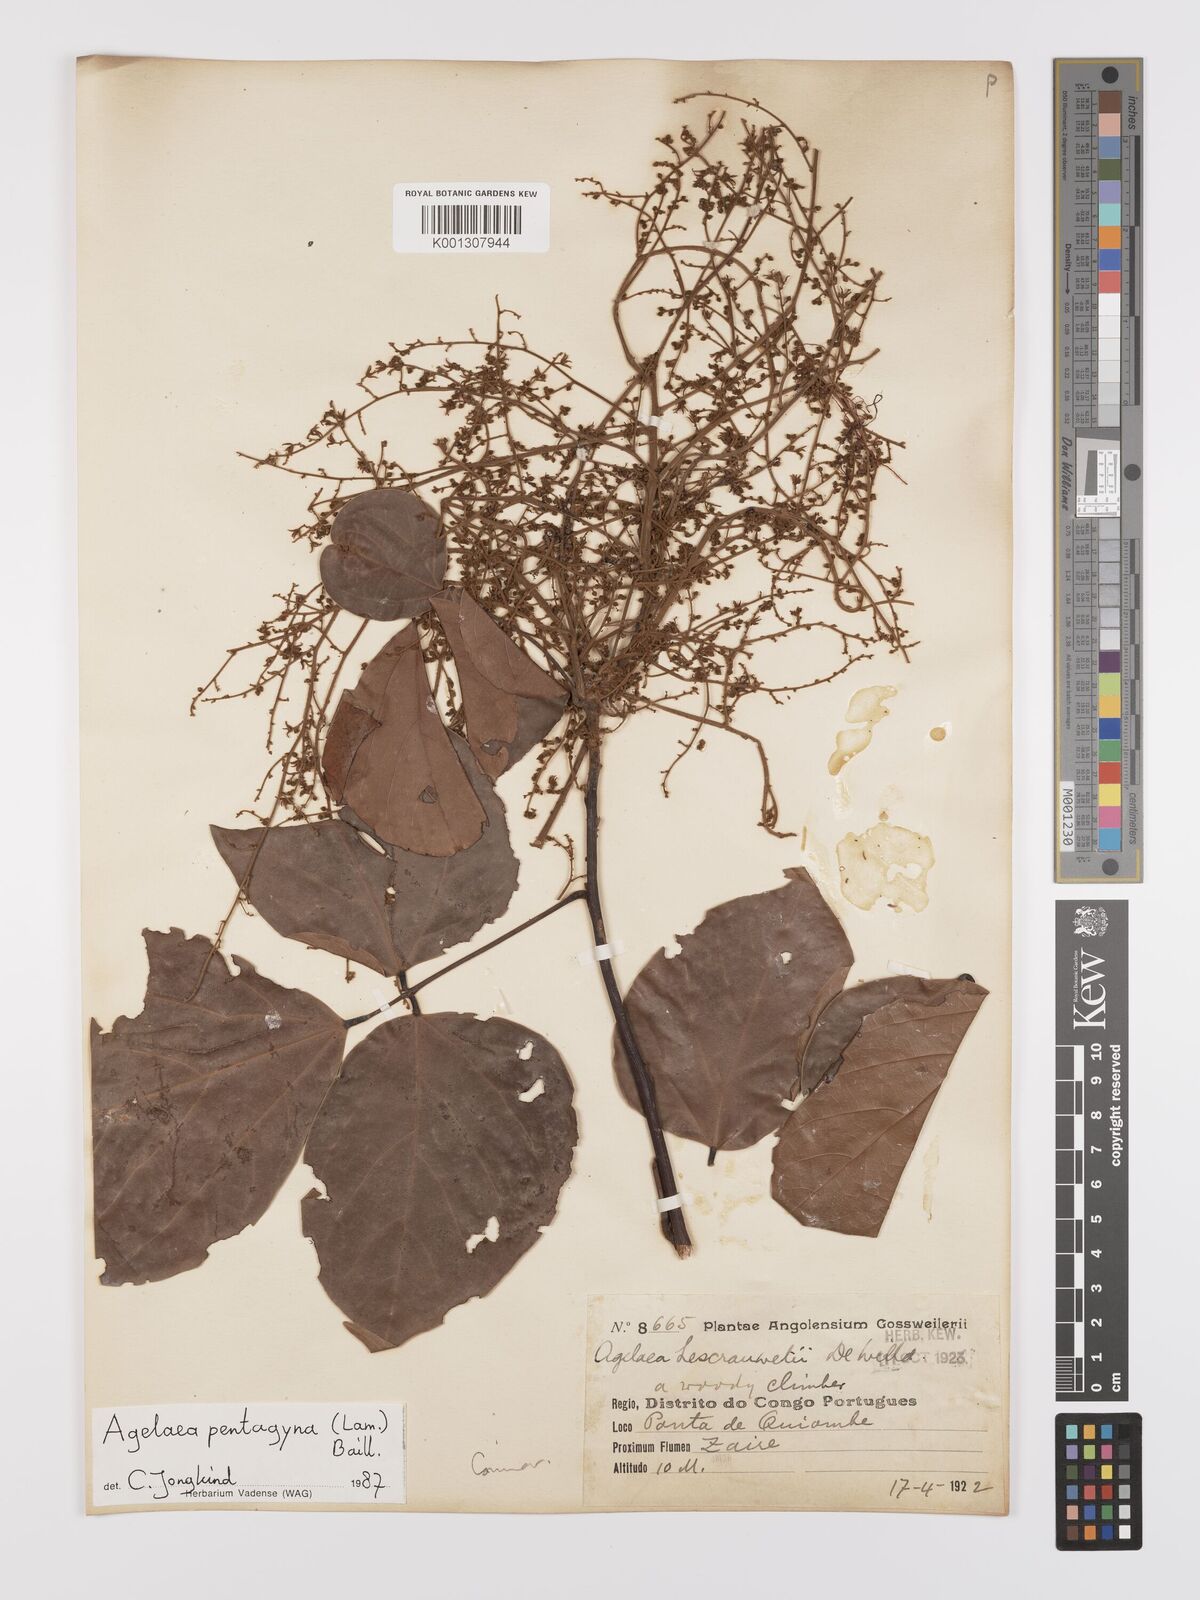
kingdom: Plantae
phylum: Tracheophyta
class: Magnoliopsida
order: Oxalidales
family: Connaraceae
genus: Agelaea
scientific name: Agelaea pentagyna
